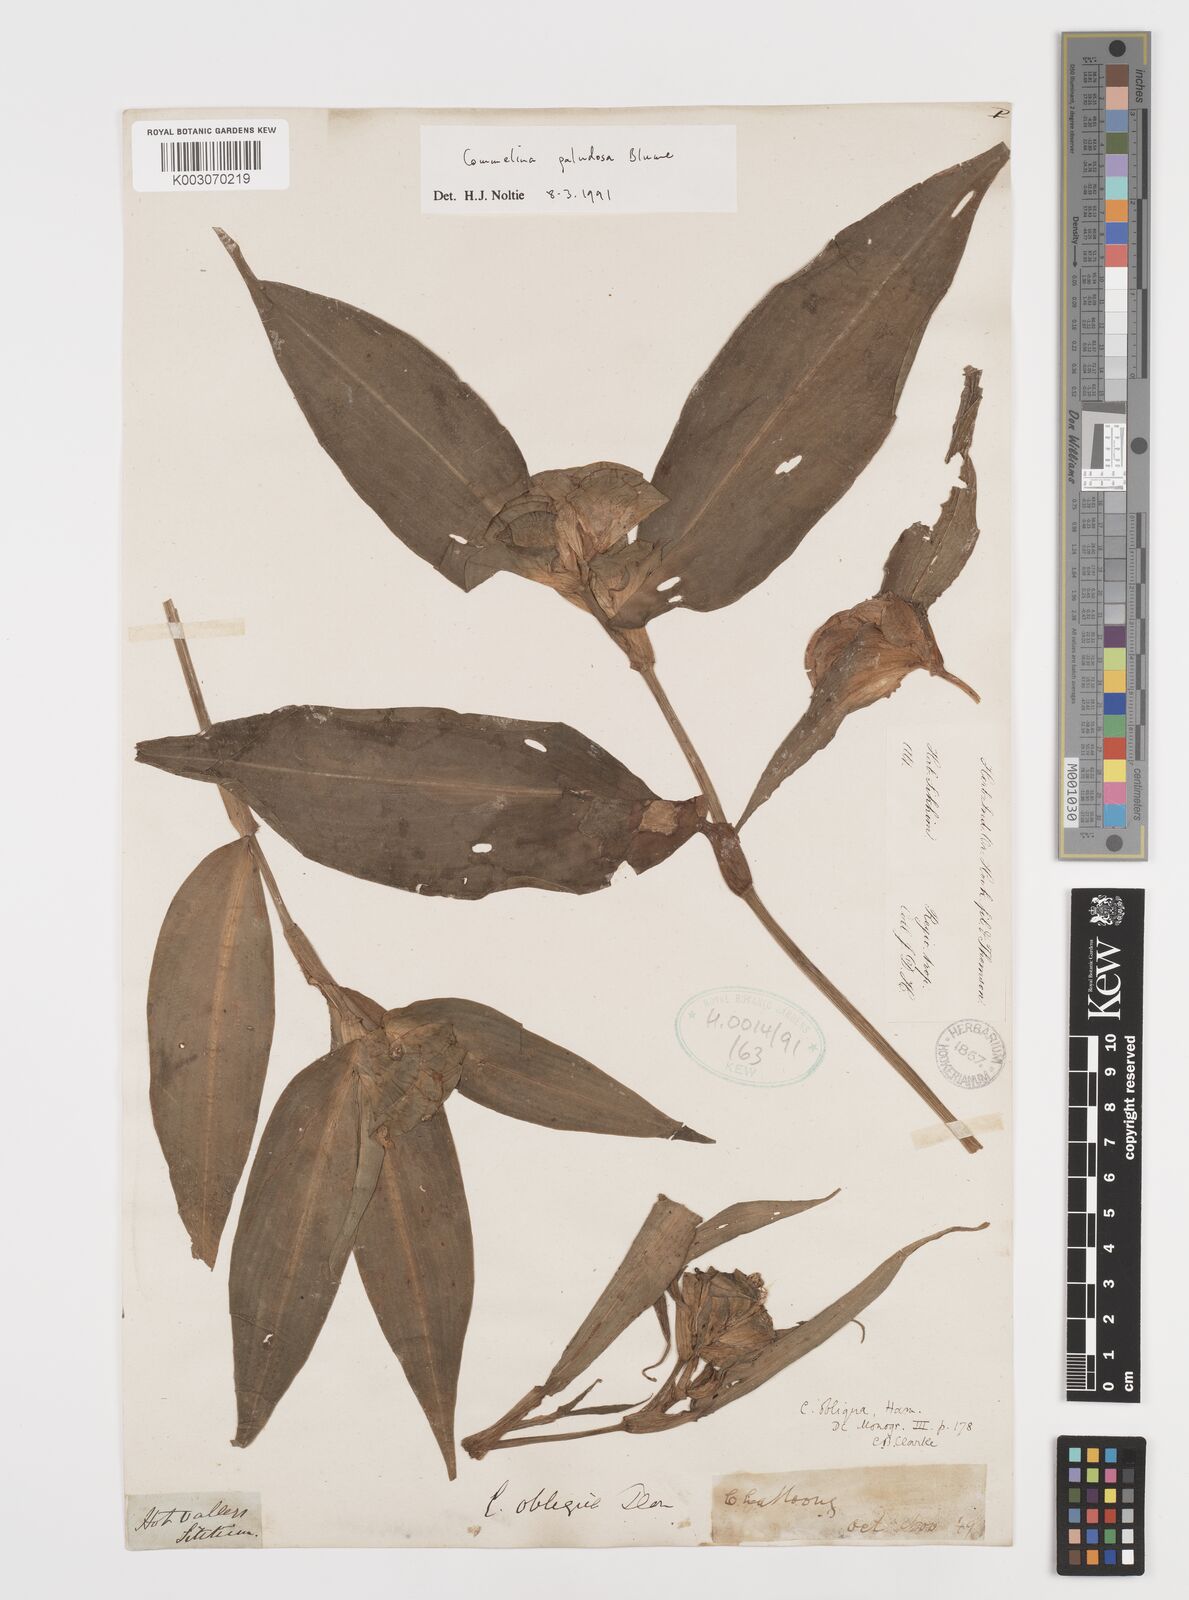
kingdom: Plantae
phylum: Tracheophyta
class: Liliopsida
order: Commelinales
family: Commelinaceae
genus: Commelina
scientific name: Commelina paludosa
